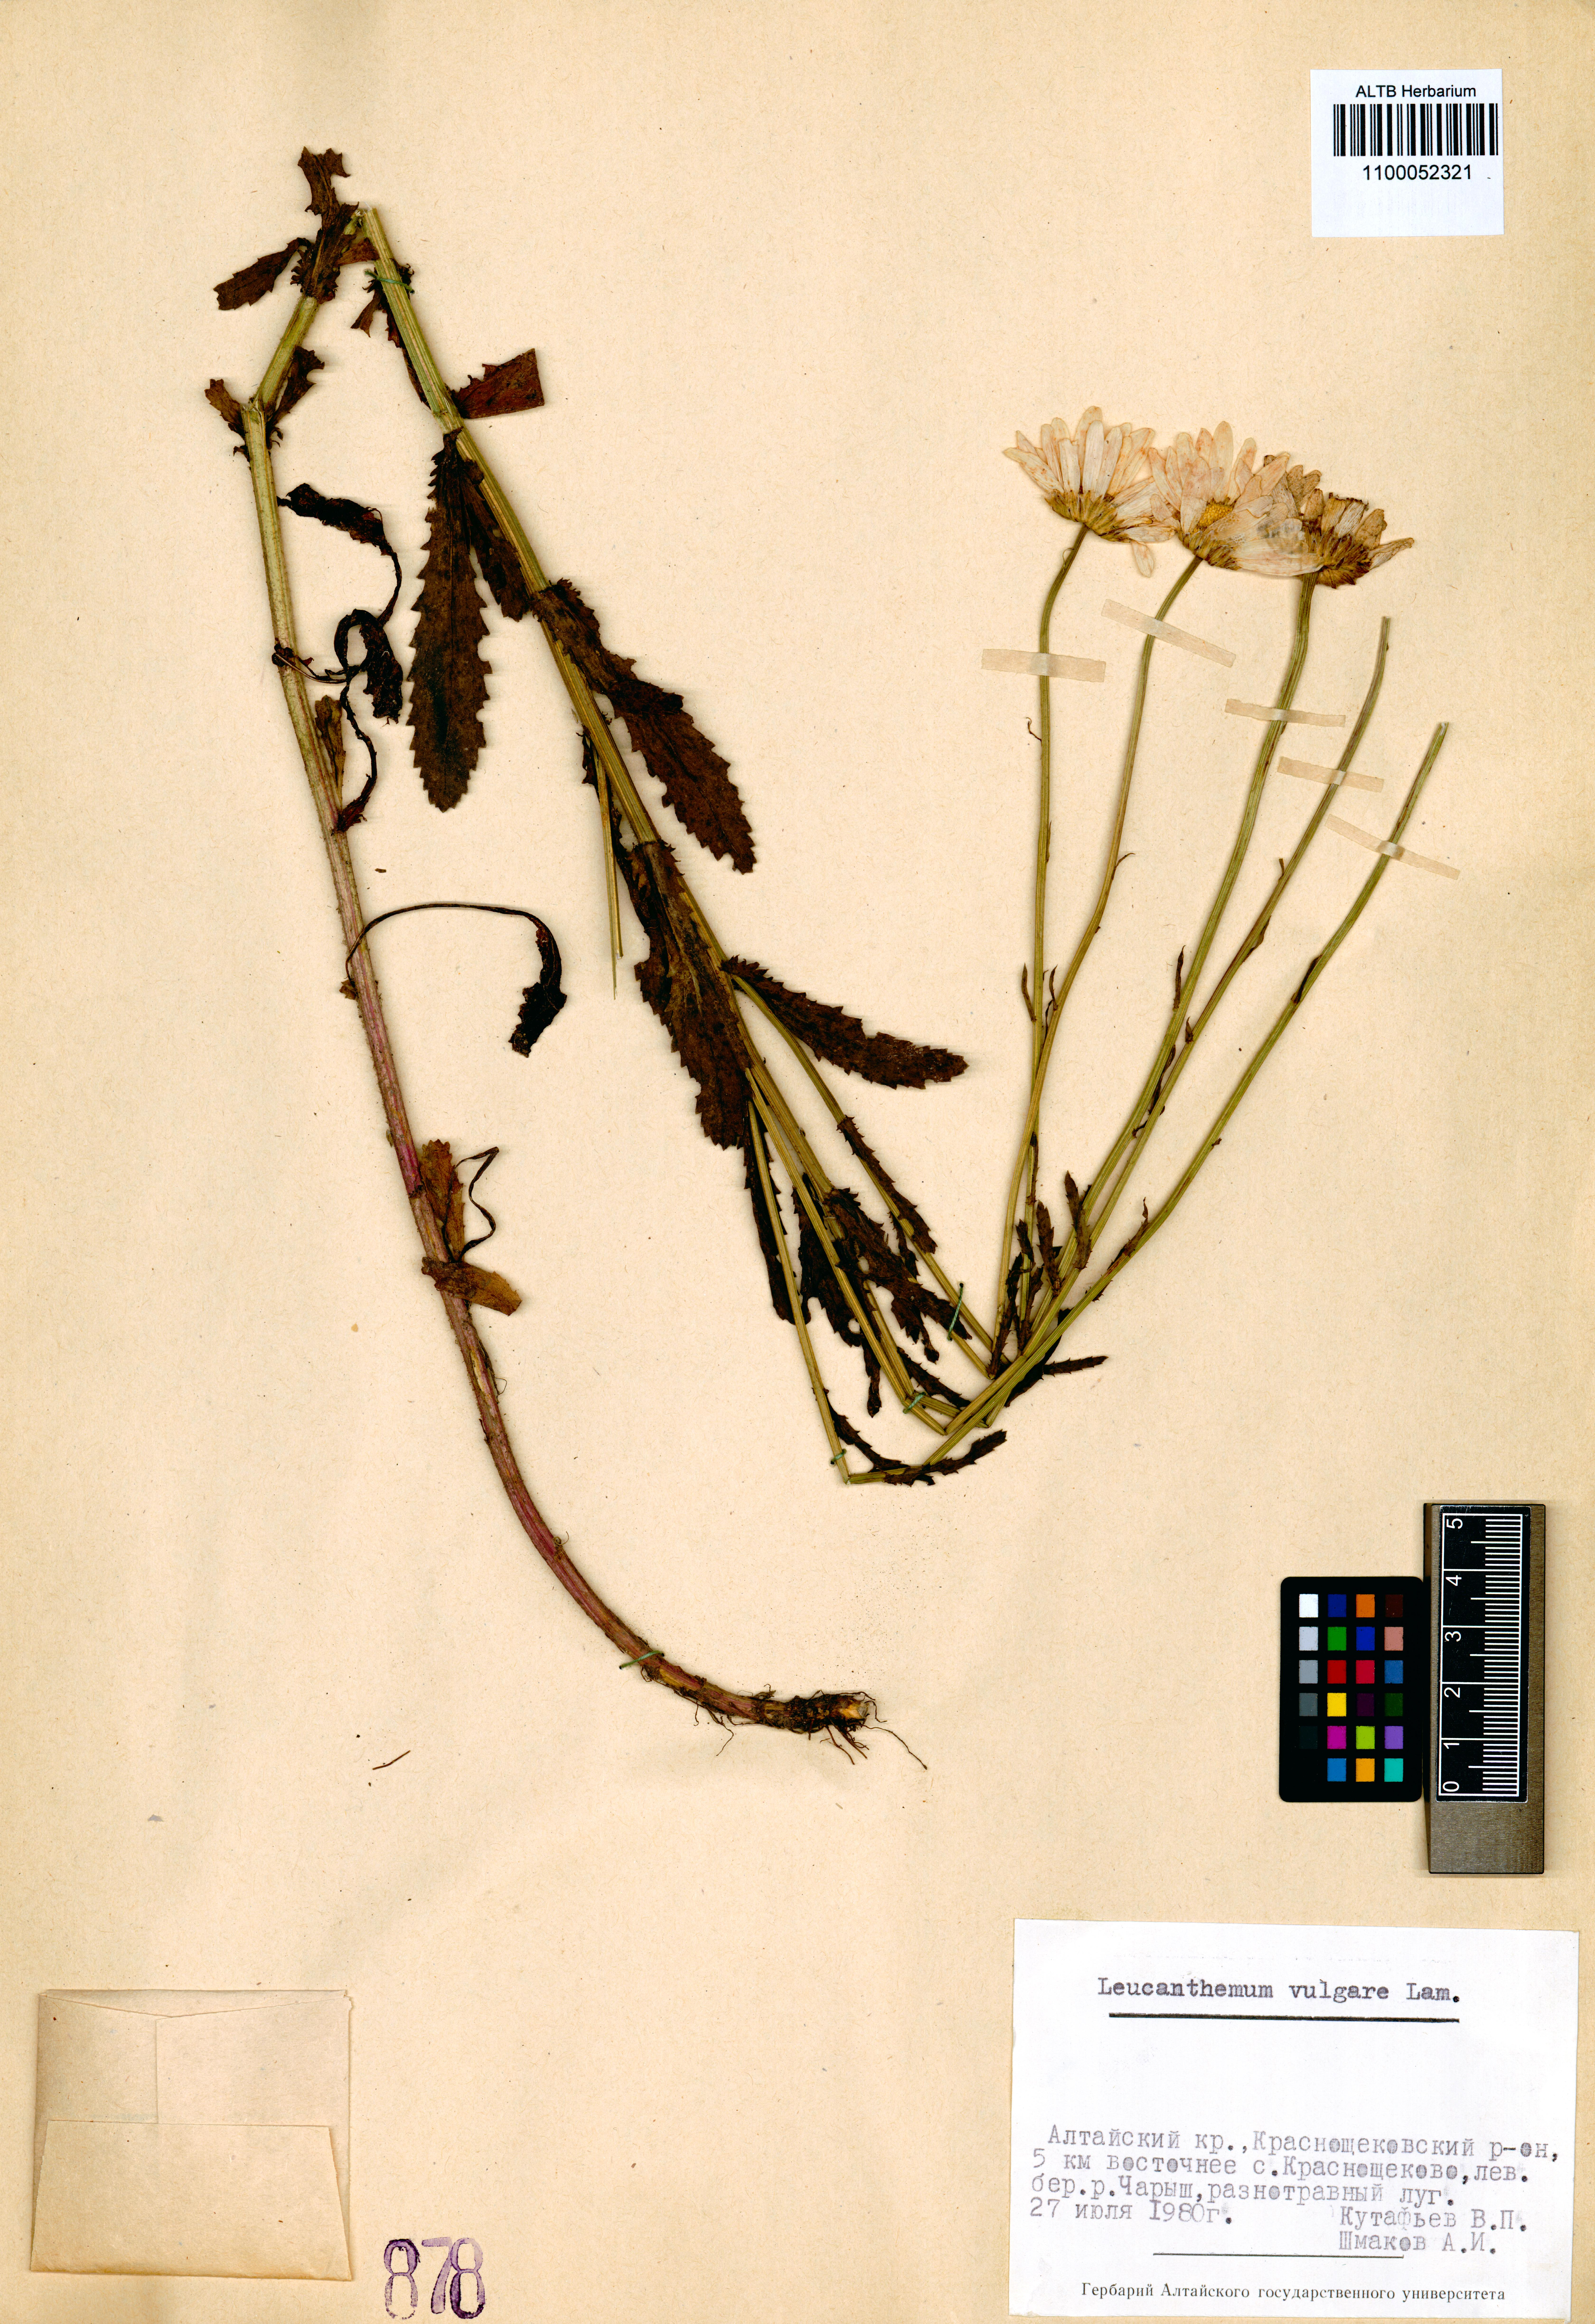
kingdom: Plantae
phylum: Tracheophyta
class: Magnoliopsida
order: Asterales
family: Asteraceae
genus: Leucanthemum
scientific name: Leucanthemum vulgare
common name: Oxeye daisy
